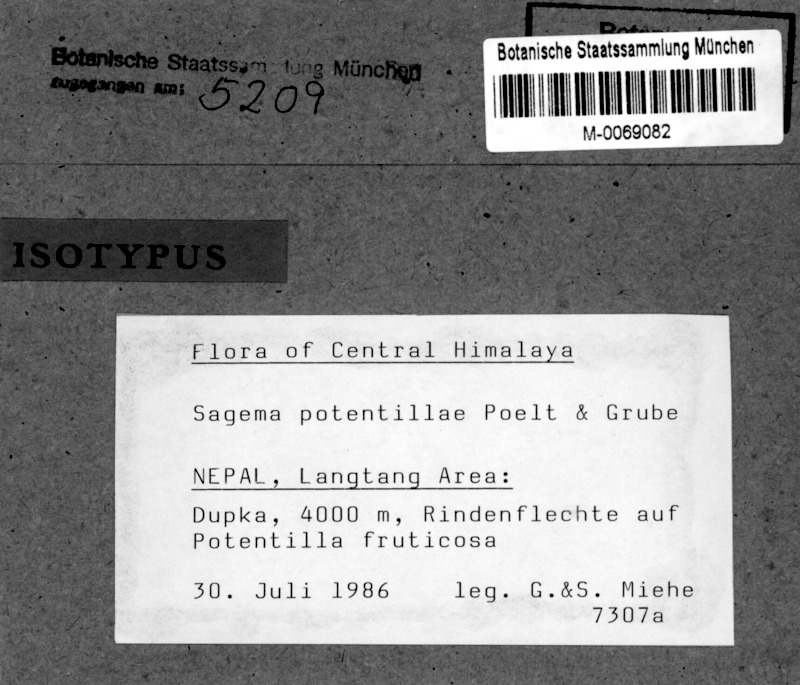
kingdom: Fungi
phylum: Ascomycota
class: Lecanoromycetes
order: Lecanorales
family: Lecanoraceae
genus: Sagema
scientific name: Sagema potentillae
